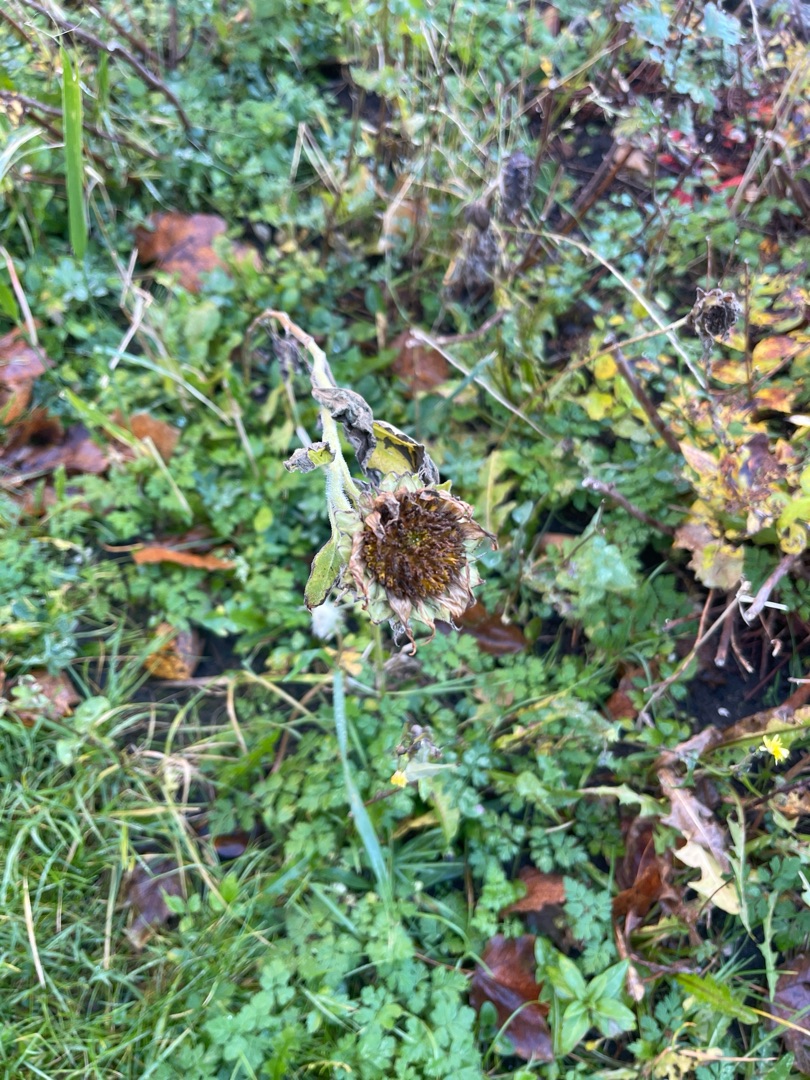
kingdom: Plantae
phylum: Tracheophyta
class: Magnoliopsida
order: Asterales
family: Asteraceae
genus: Helianthus
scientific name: Helianthus annuus
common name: Solsikke
